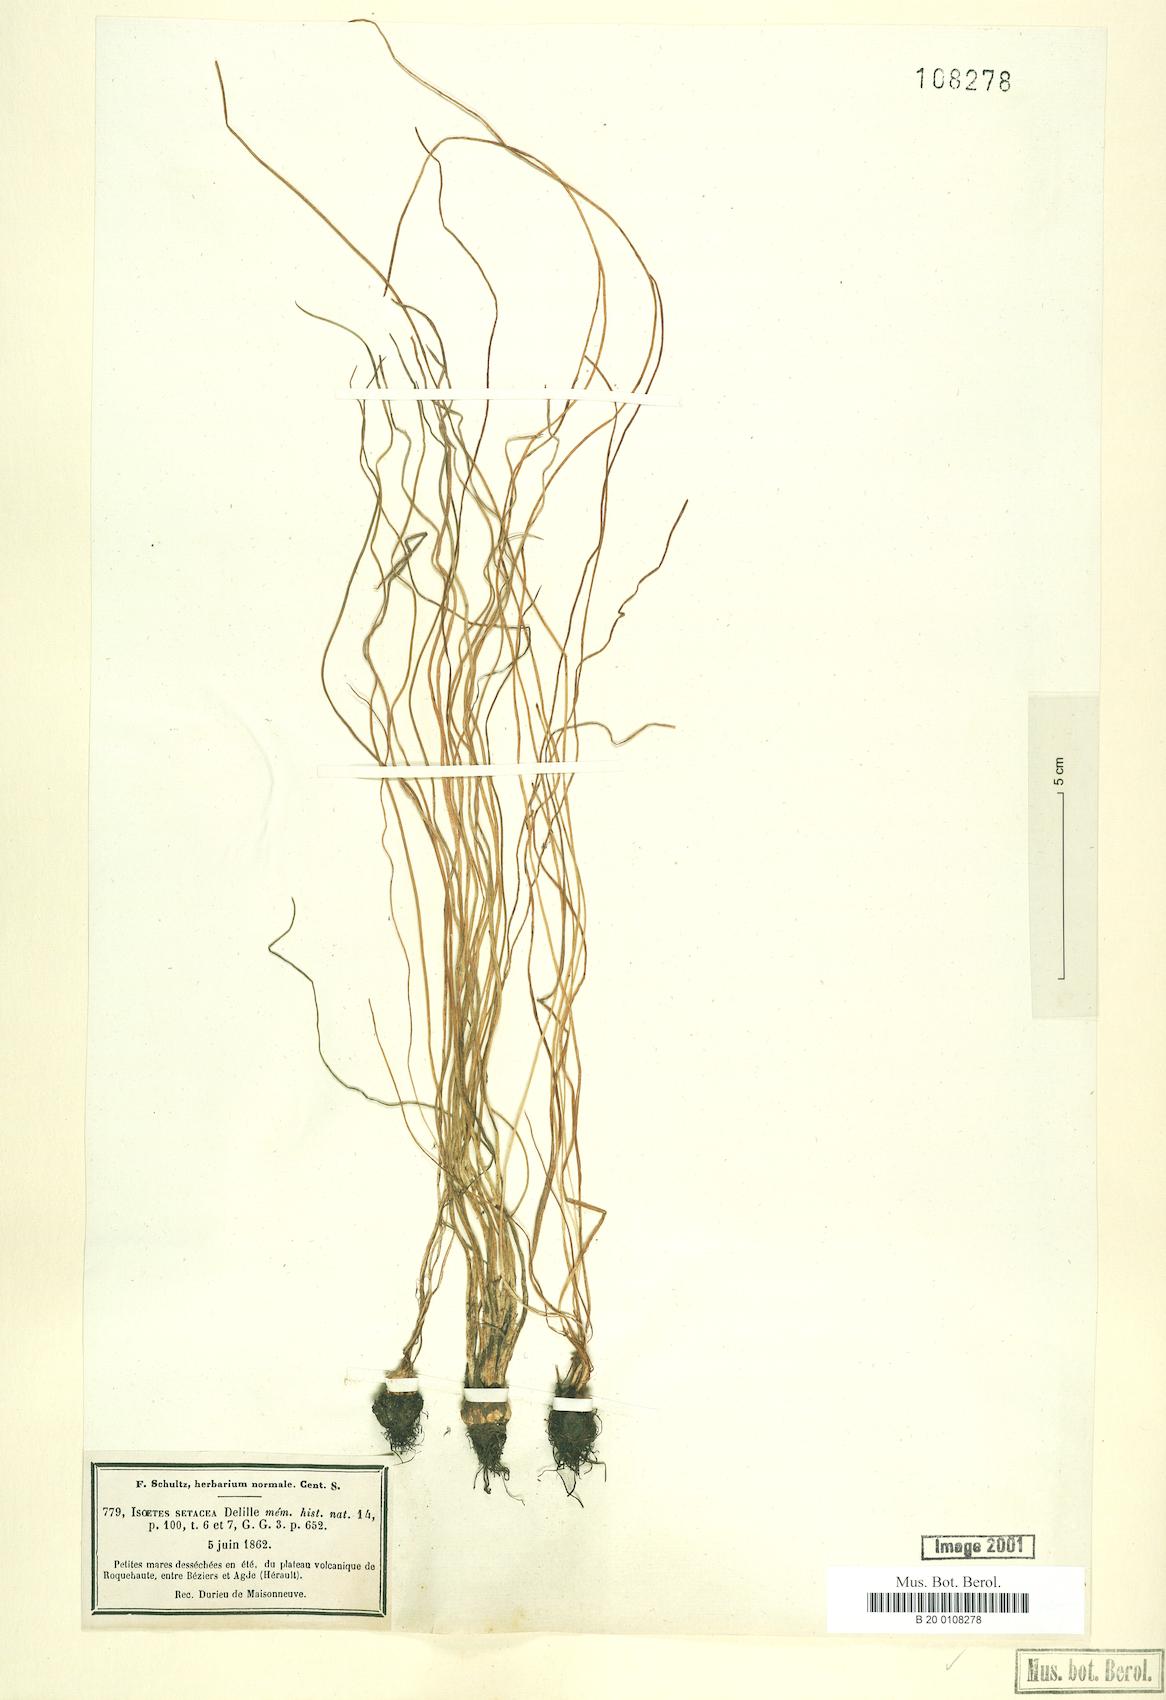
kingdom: Plantae
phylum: Tracheophyta
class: Lycopodiopsida
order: Isoetales
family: Isoetaceae
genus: Isoetes
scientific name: Isoetes lacustris
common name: Common quillwort
